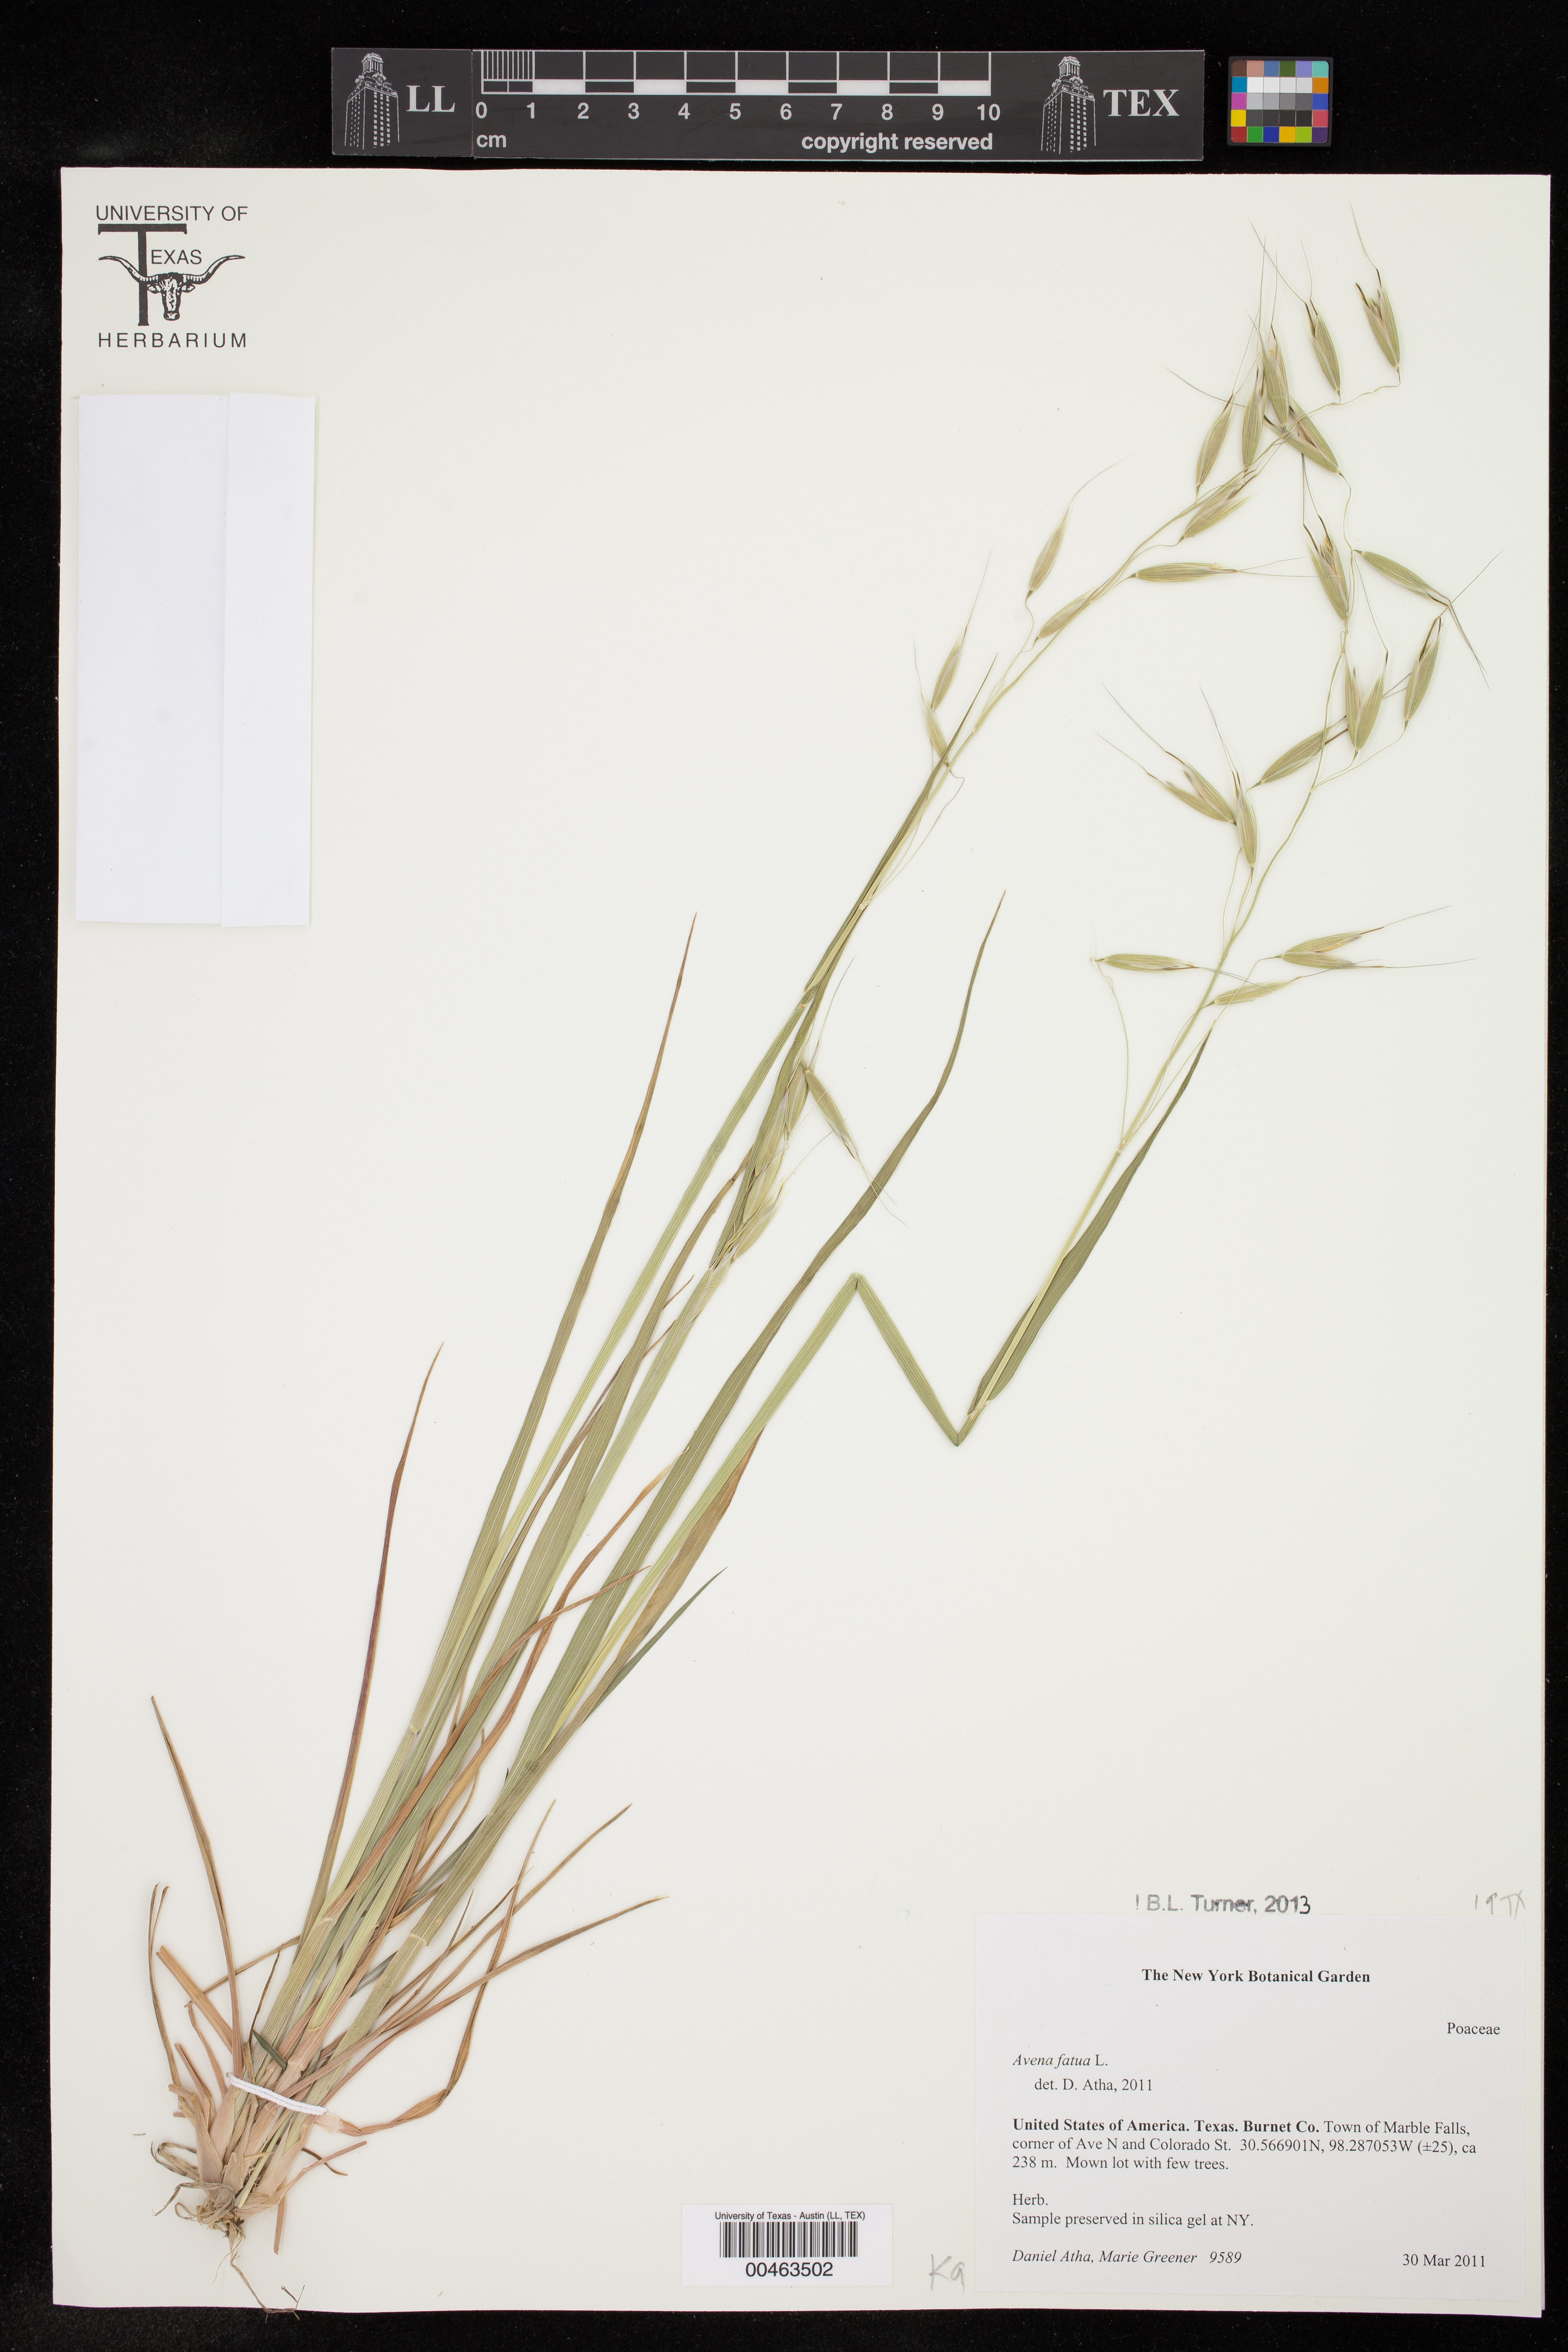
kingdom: Plantae
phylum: Tracheophyta
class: Liliopsida
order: Poales
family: Poaceae
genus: Avena
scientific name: Avena fatua
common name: Wild oat
